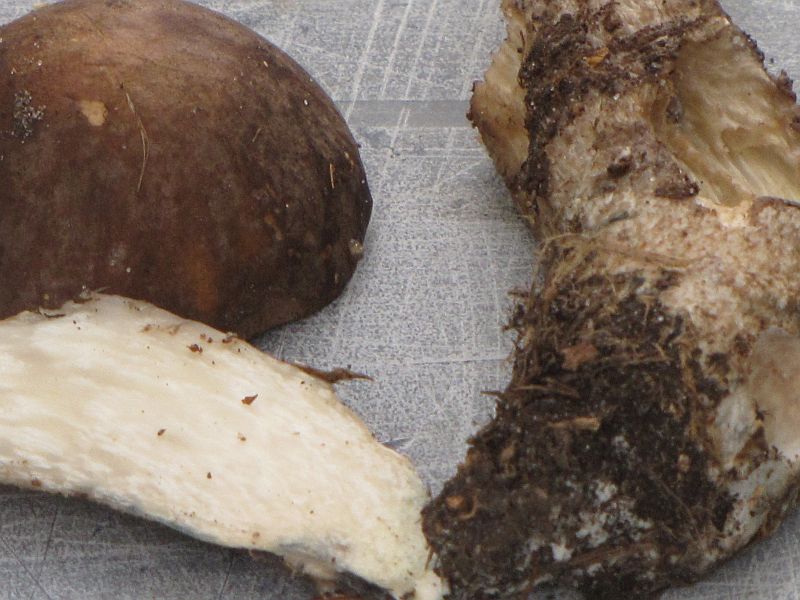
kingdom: Fungi
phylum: Basidiomycota
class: Agaricomycetes
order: Boletales
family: Boletaceae
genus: Leccinum
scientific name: Leccinum variicolor
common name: flammet skælrørhat
